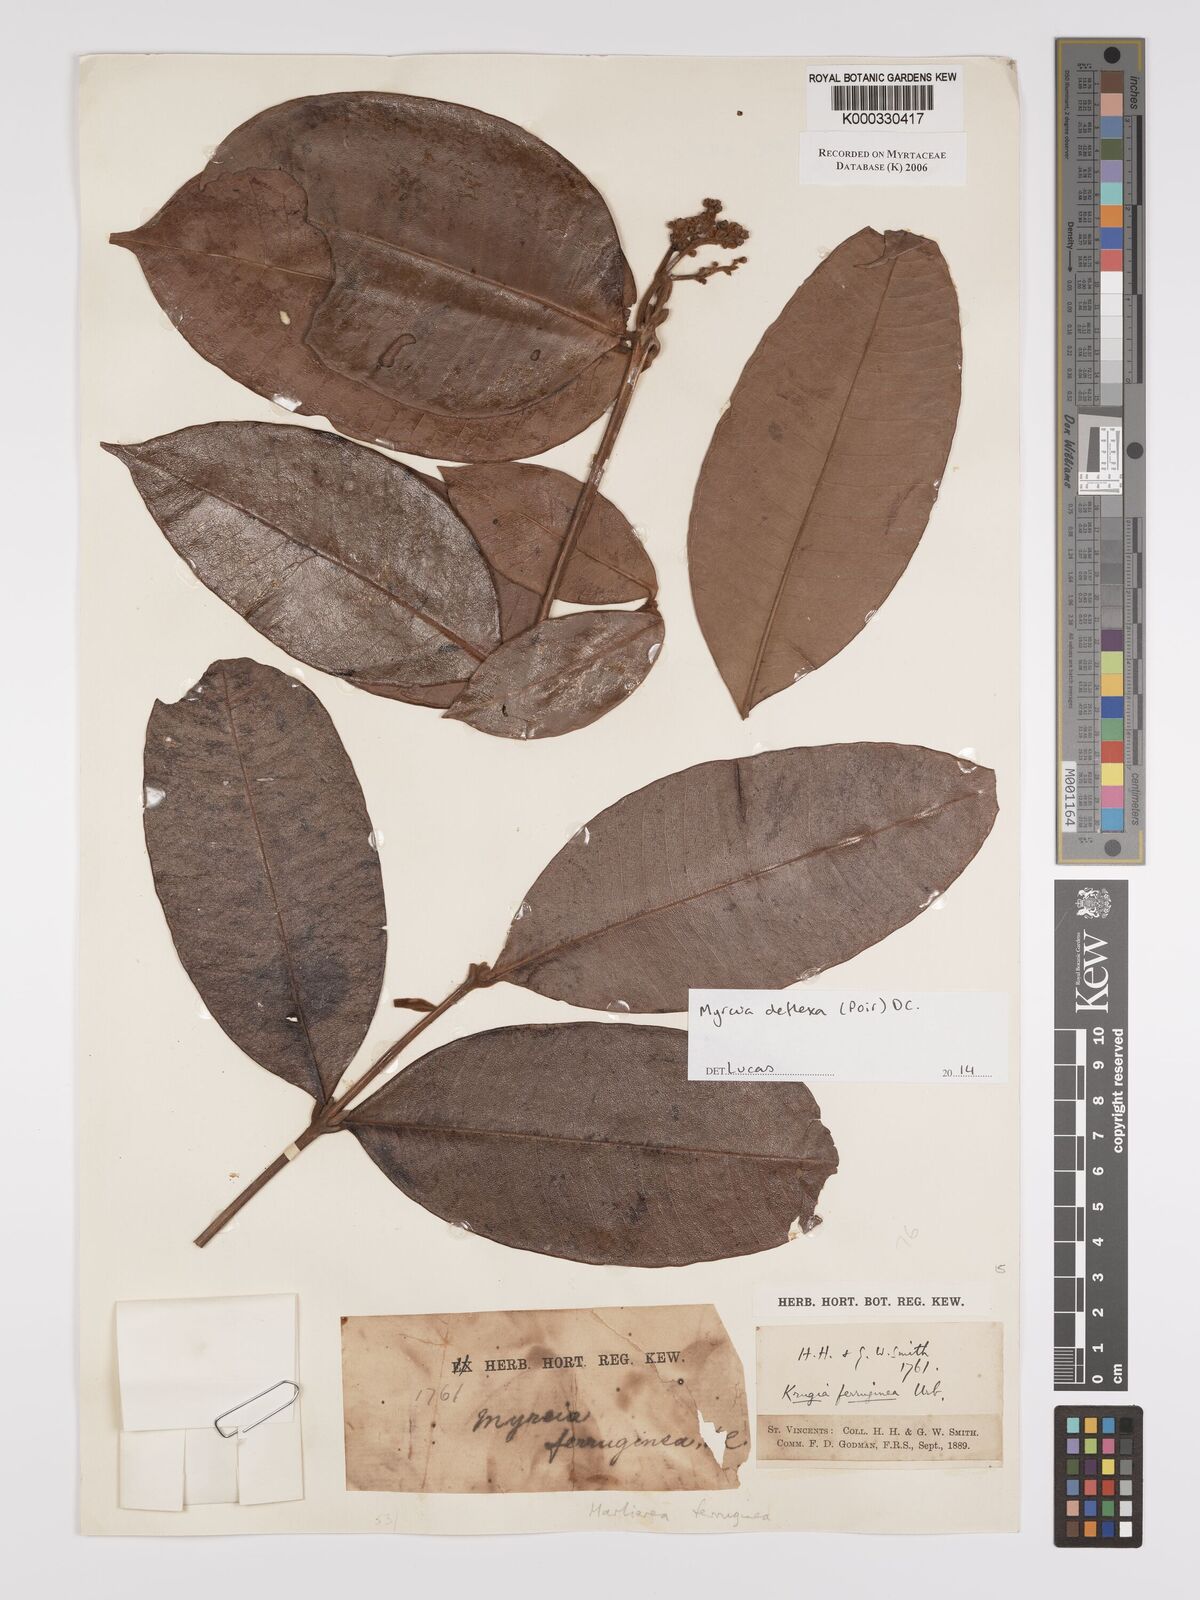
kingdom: Plantae
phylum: Tracheophyta
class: Magnoliopsida
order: Myrtales
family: Myrtaceae
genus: Myrcia
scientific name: Myrcia ferruginea
